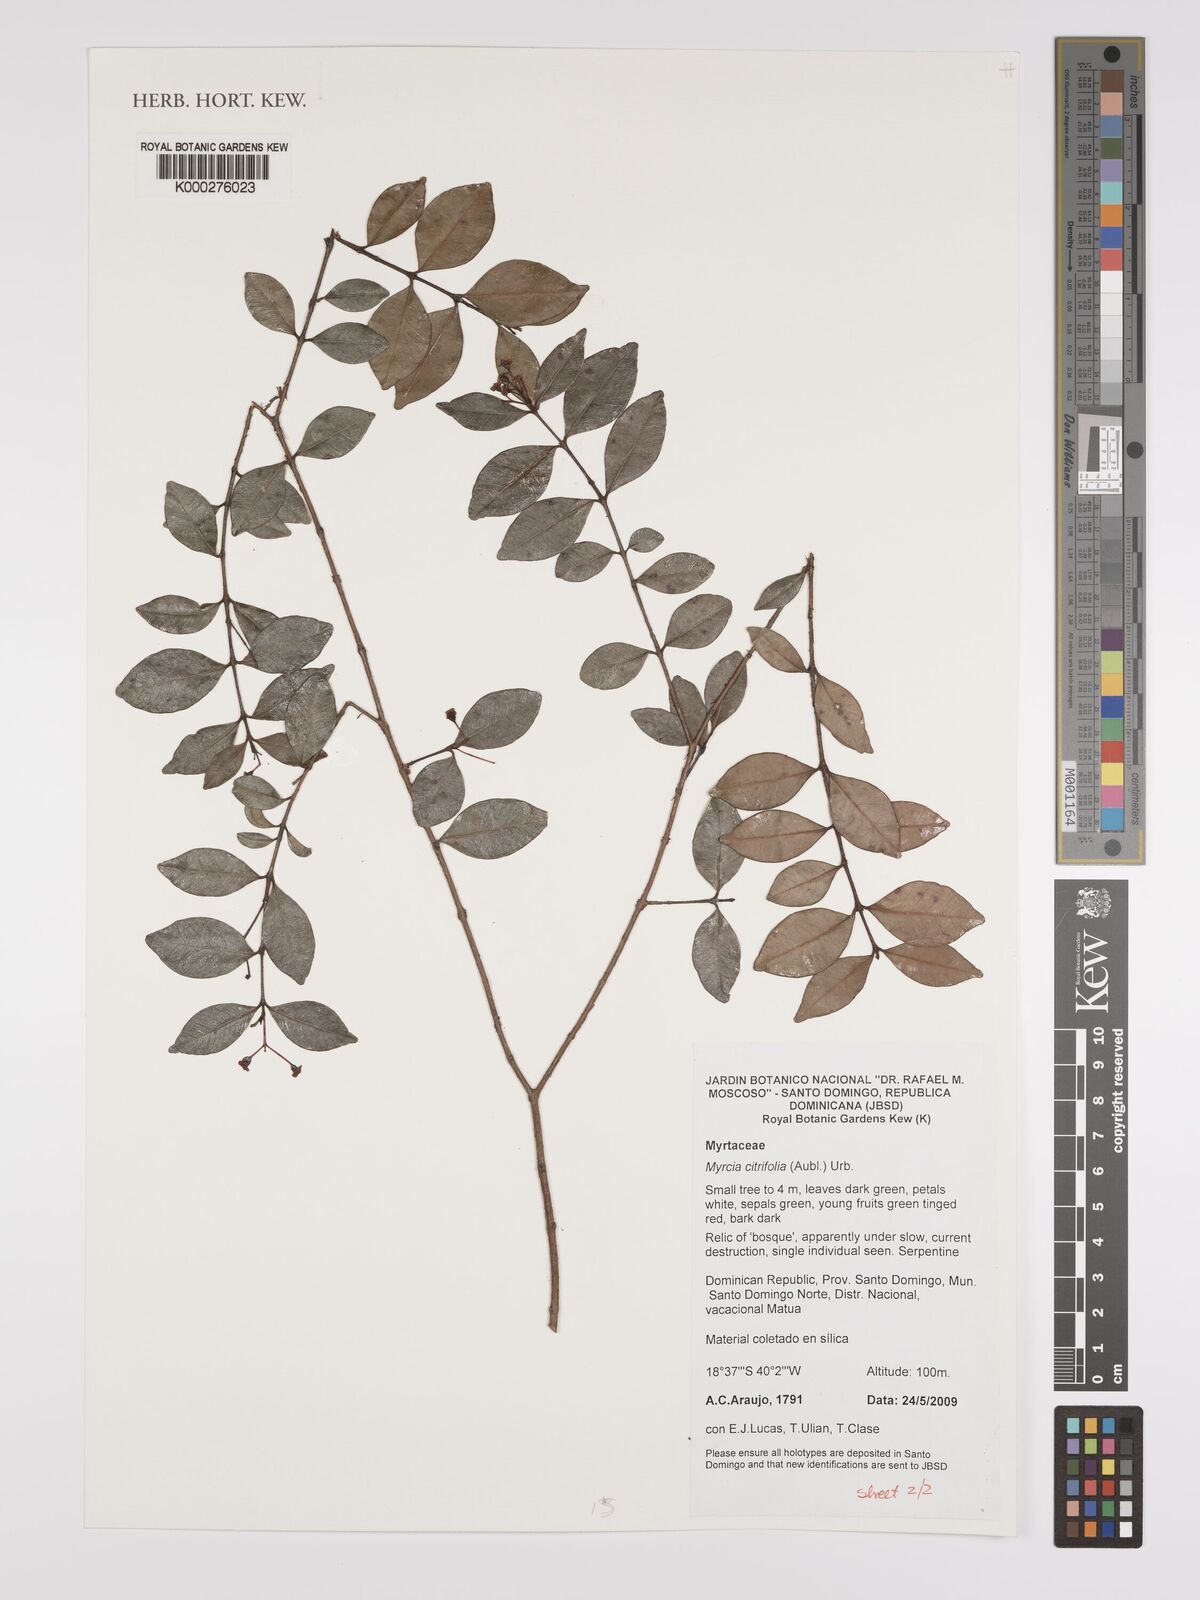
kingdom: Plantae
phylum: Tracheophyta
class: Magnoliopsida
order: Myrtales
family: Myrtaceae
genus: Myrcia
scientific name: Myrcia guianensis
